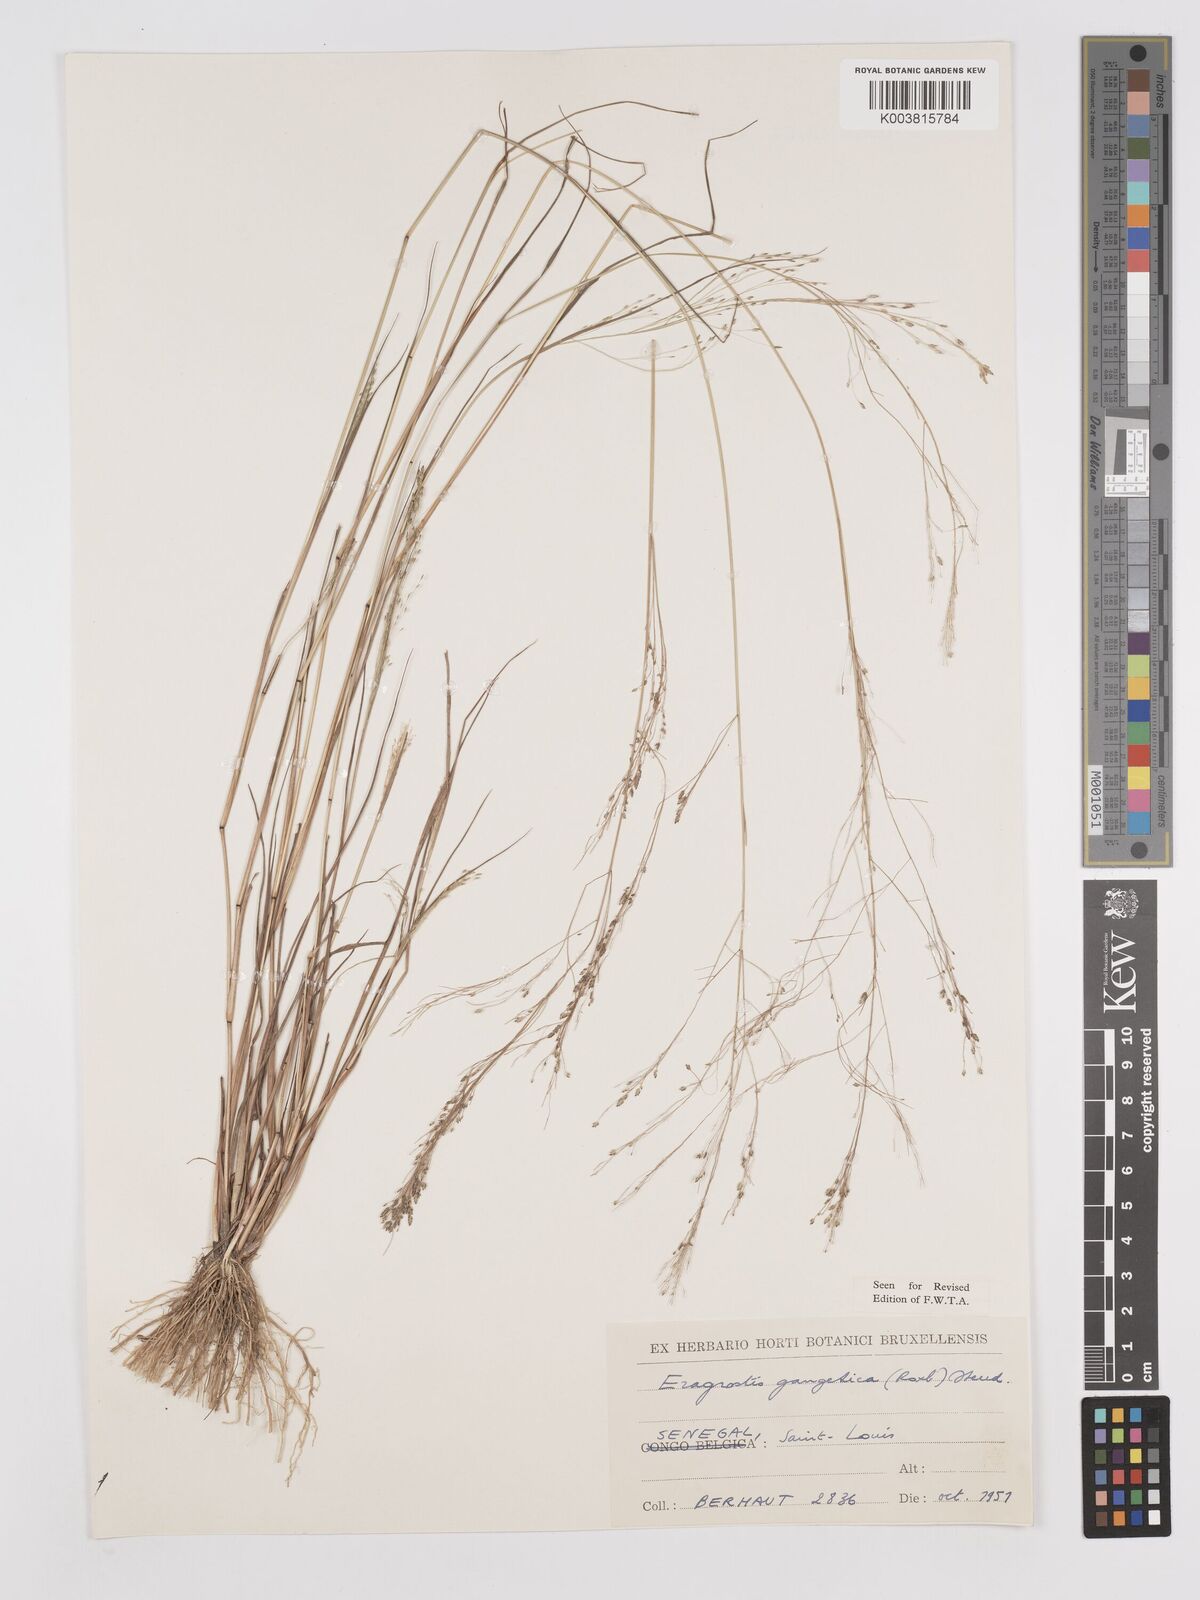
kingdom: Plantae
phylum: Tracheophyta
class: Liliopsida
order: Poales
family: Poaceae
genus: Eragrostis
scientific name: Eragrostis gangetica
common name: Slimflower lovegrass
